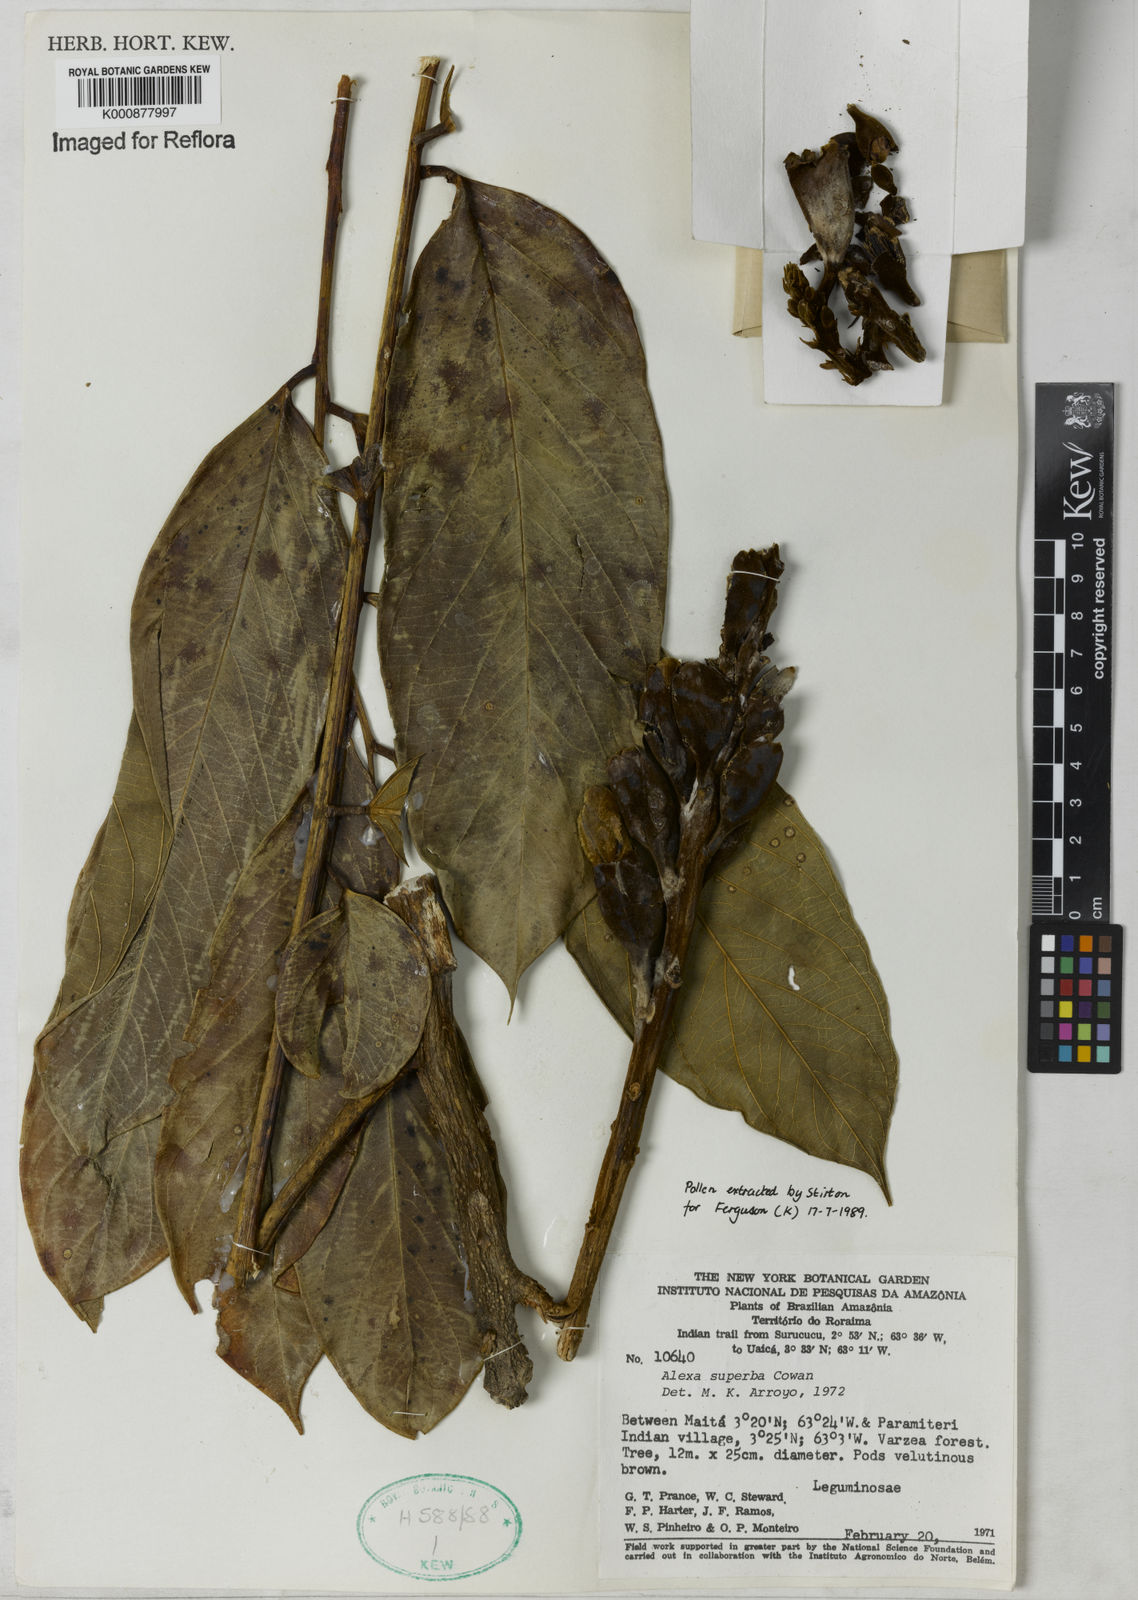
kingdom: Plantae
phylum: Tracheophyta
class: Magnoliopsida
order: Fabales
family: Fabaceae
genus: Alexa
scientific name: Alexa confusa
